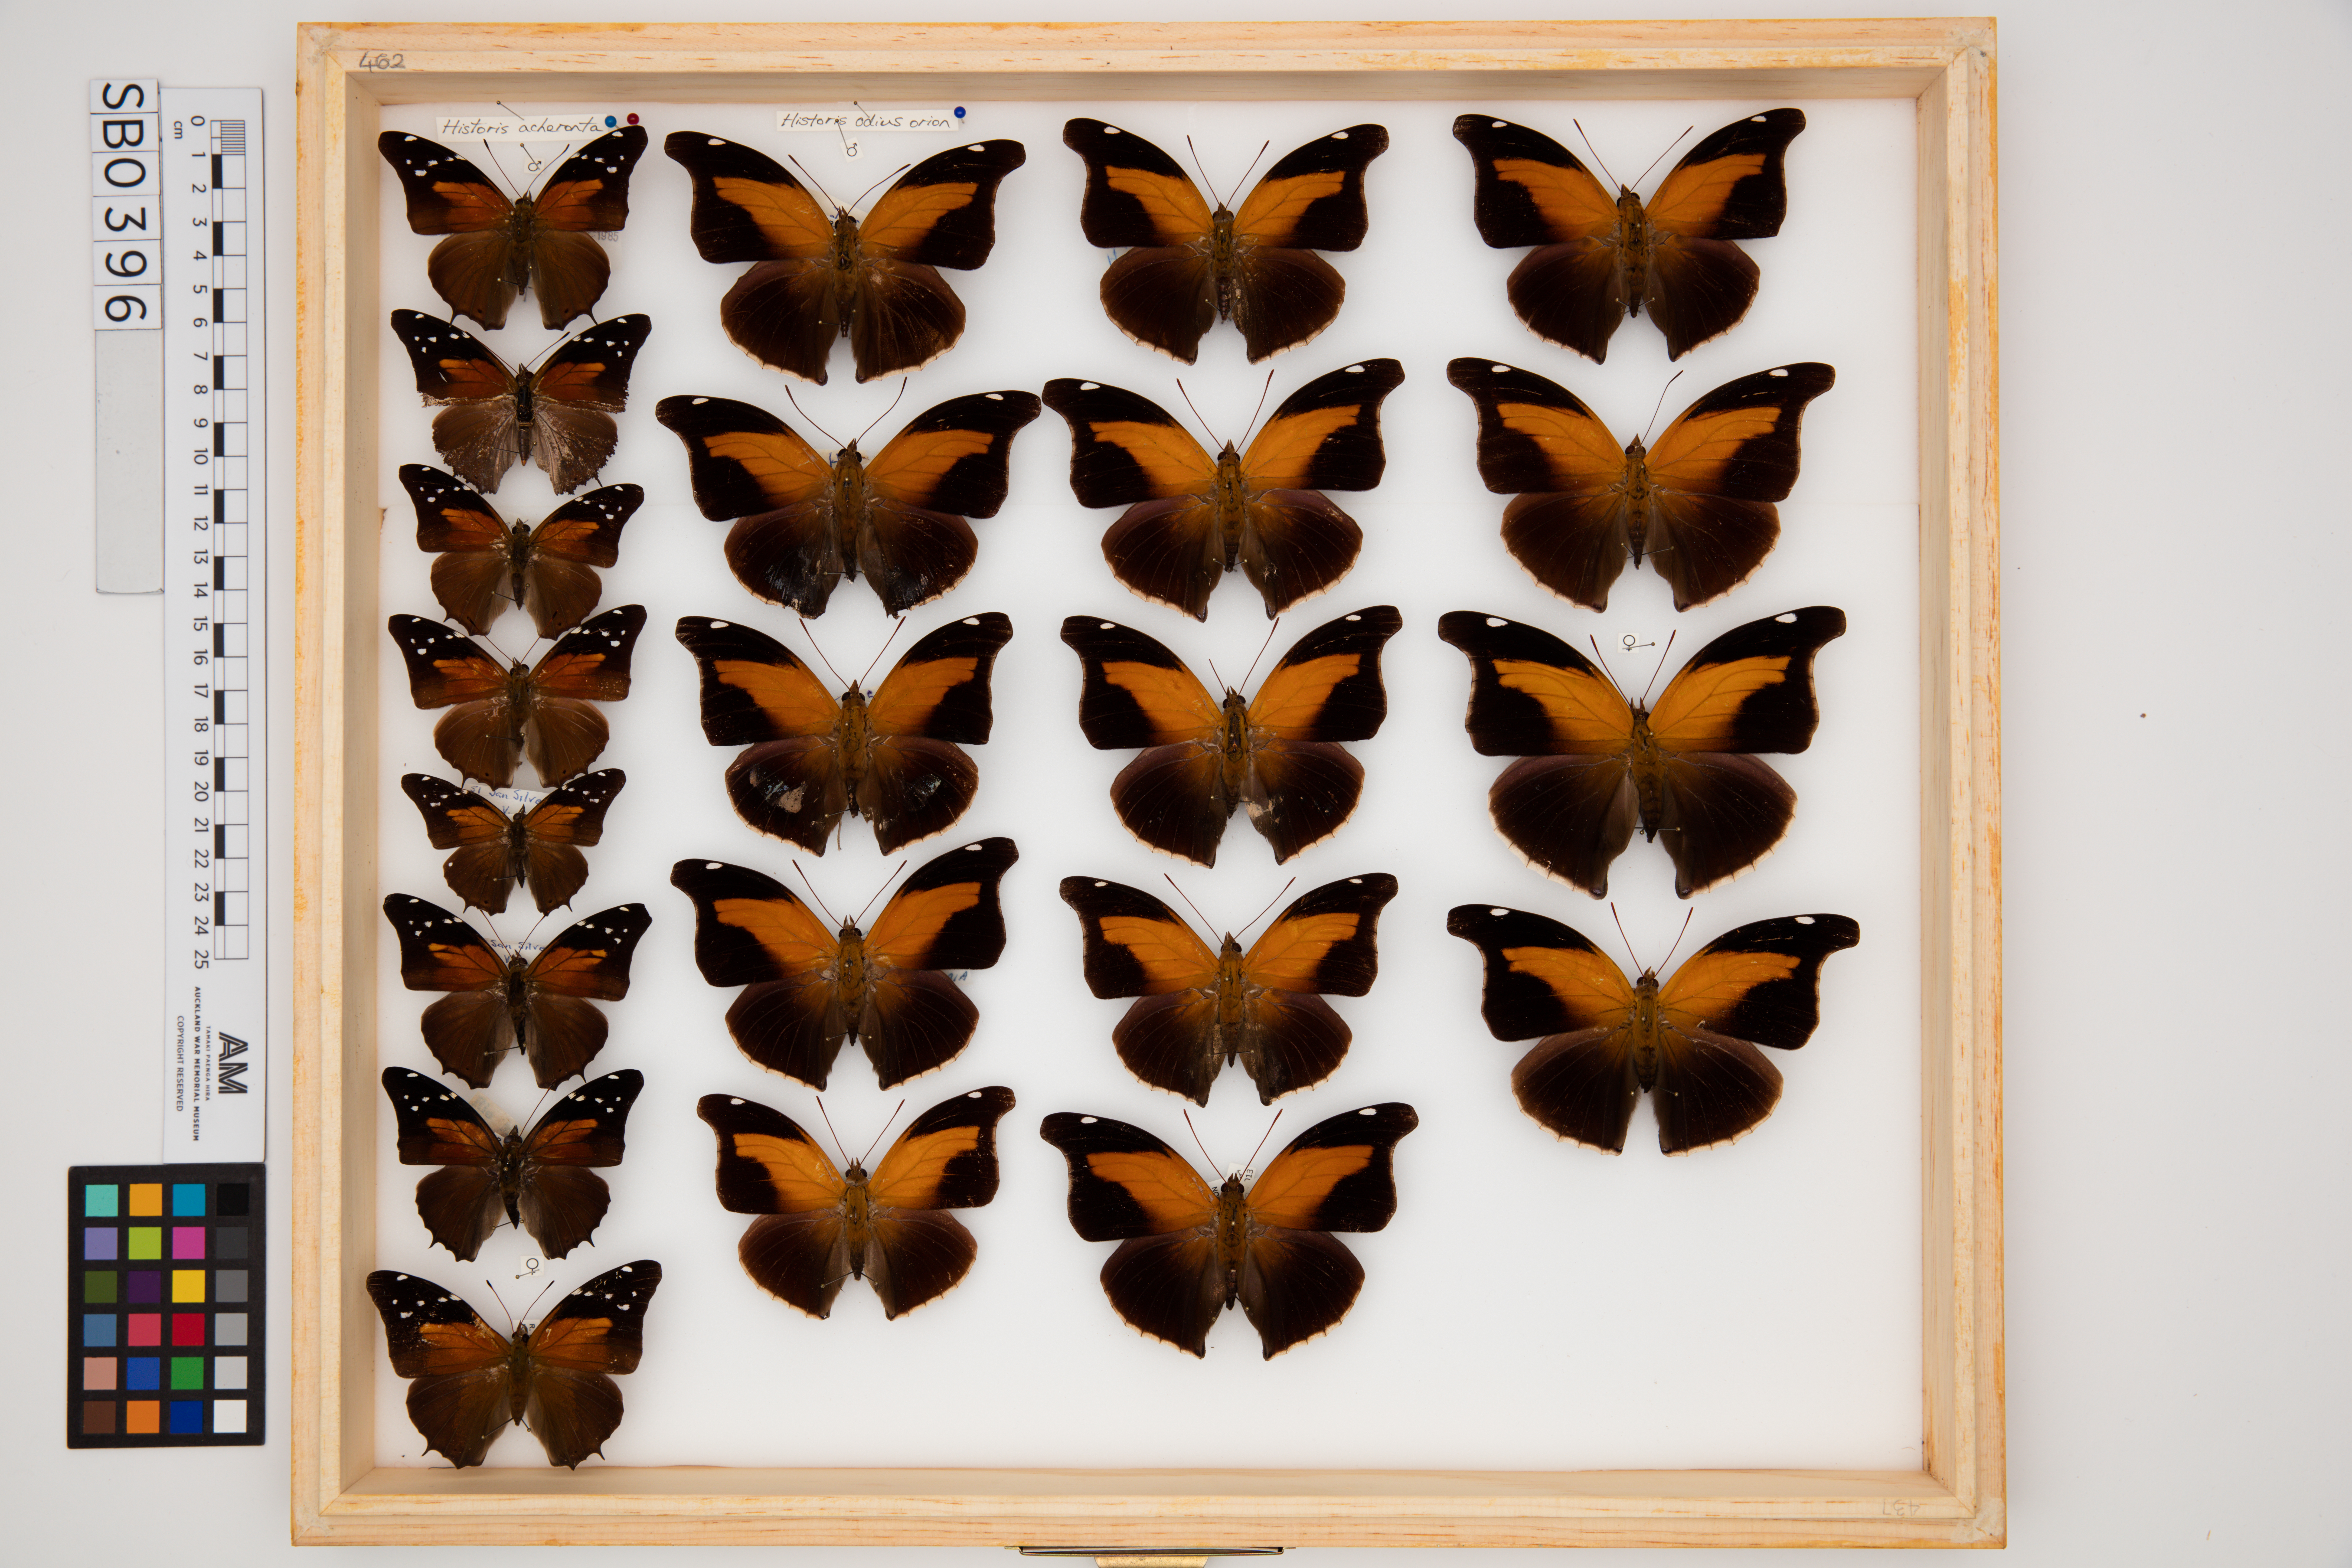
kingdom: Animalia
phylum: Arthropoda
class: Insecta
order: Lepidoptera
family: Nymphalidae
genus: Historis
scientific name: Historis odius
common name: Orion cecropian
